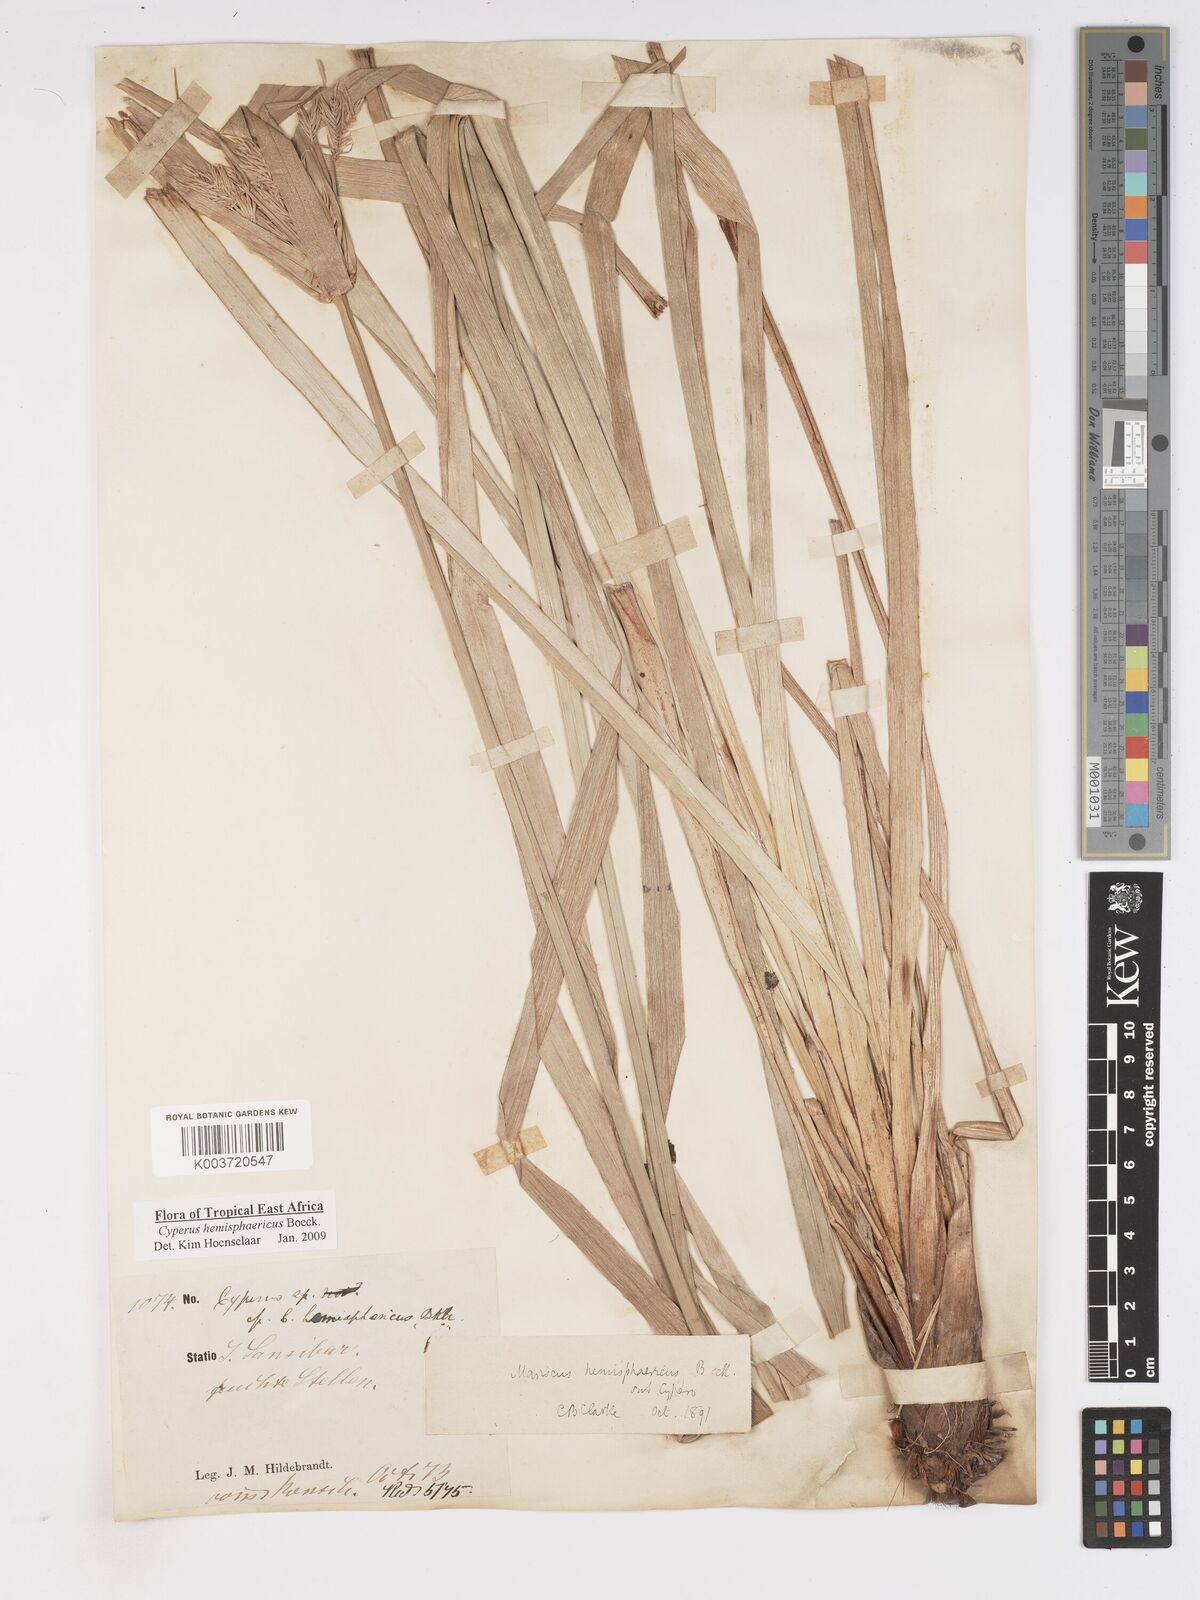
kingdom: Plantae
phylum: Tracheophyta
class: Liliopsida
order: Poales
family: Cyperaceae
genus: Cyperus
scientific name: Cyperus hemisphaericus
